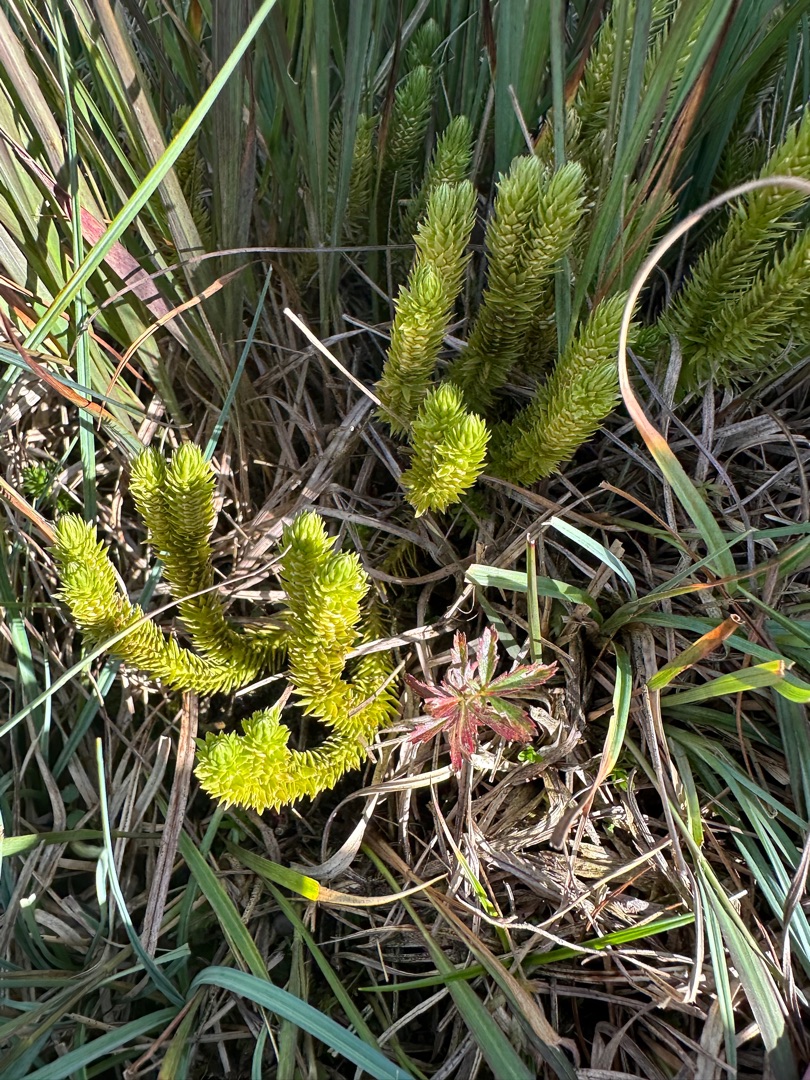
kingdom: Plantae
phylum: Tracheophyta
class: Lycopodiopsida
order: Lycopodiales
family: Lycopodiaceae
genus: Huperzia
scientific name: Huperzia selago
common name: Otteradet ulvefod
